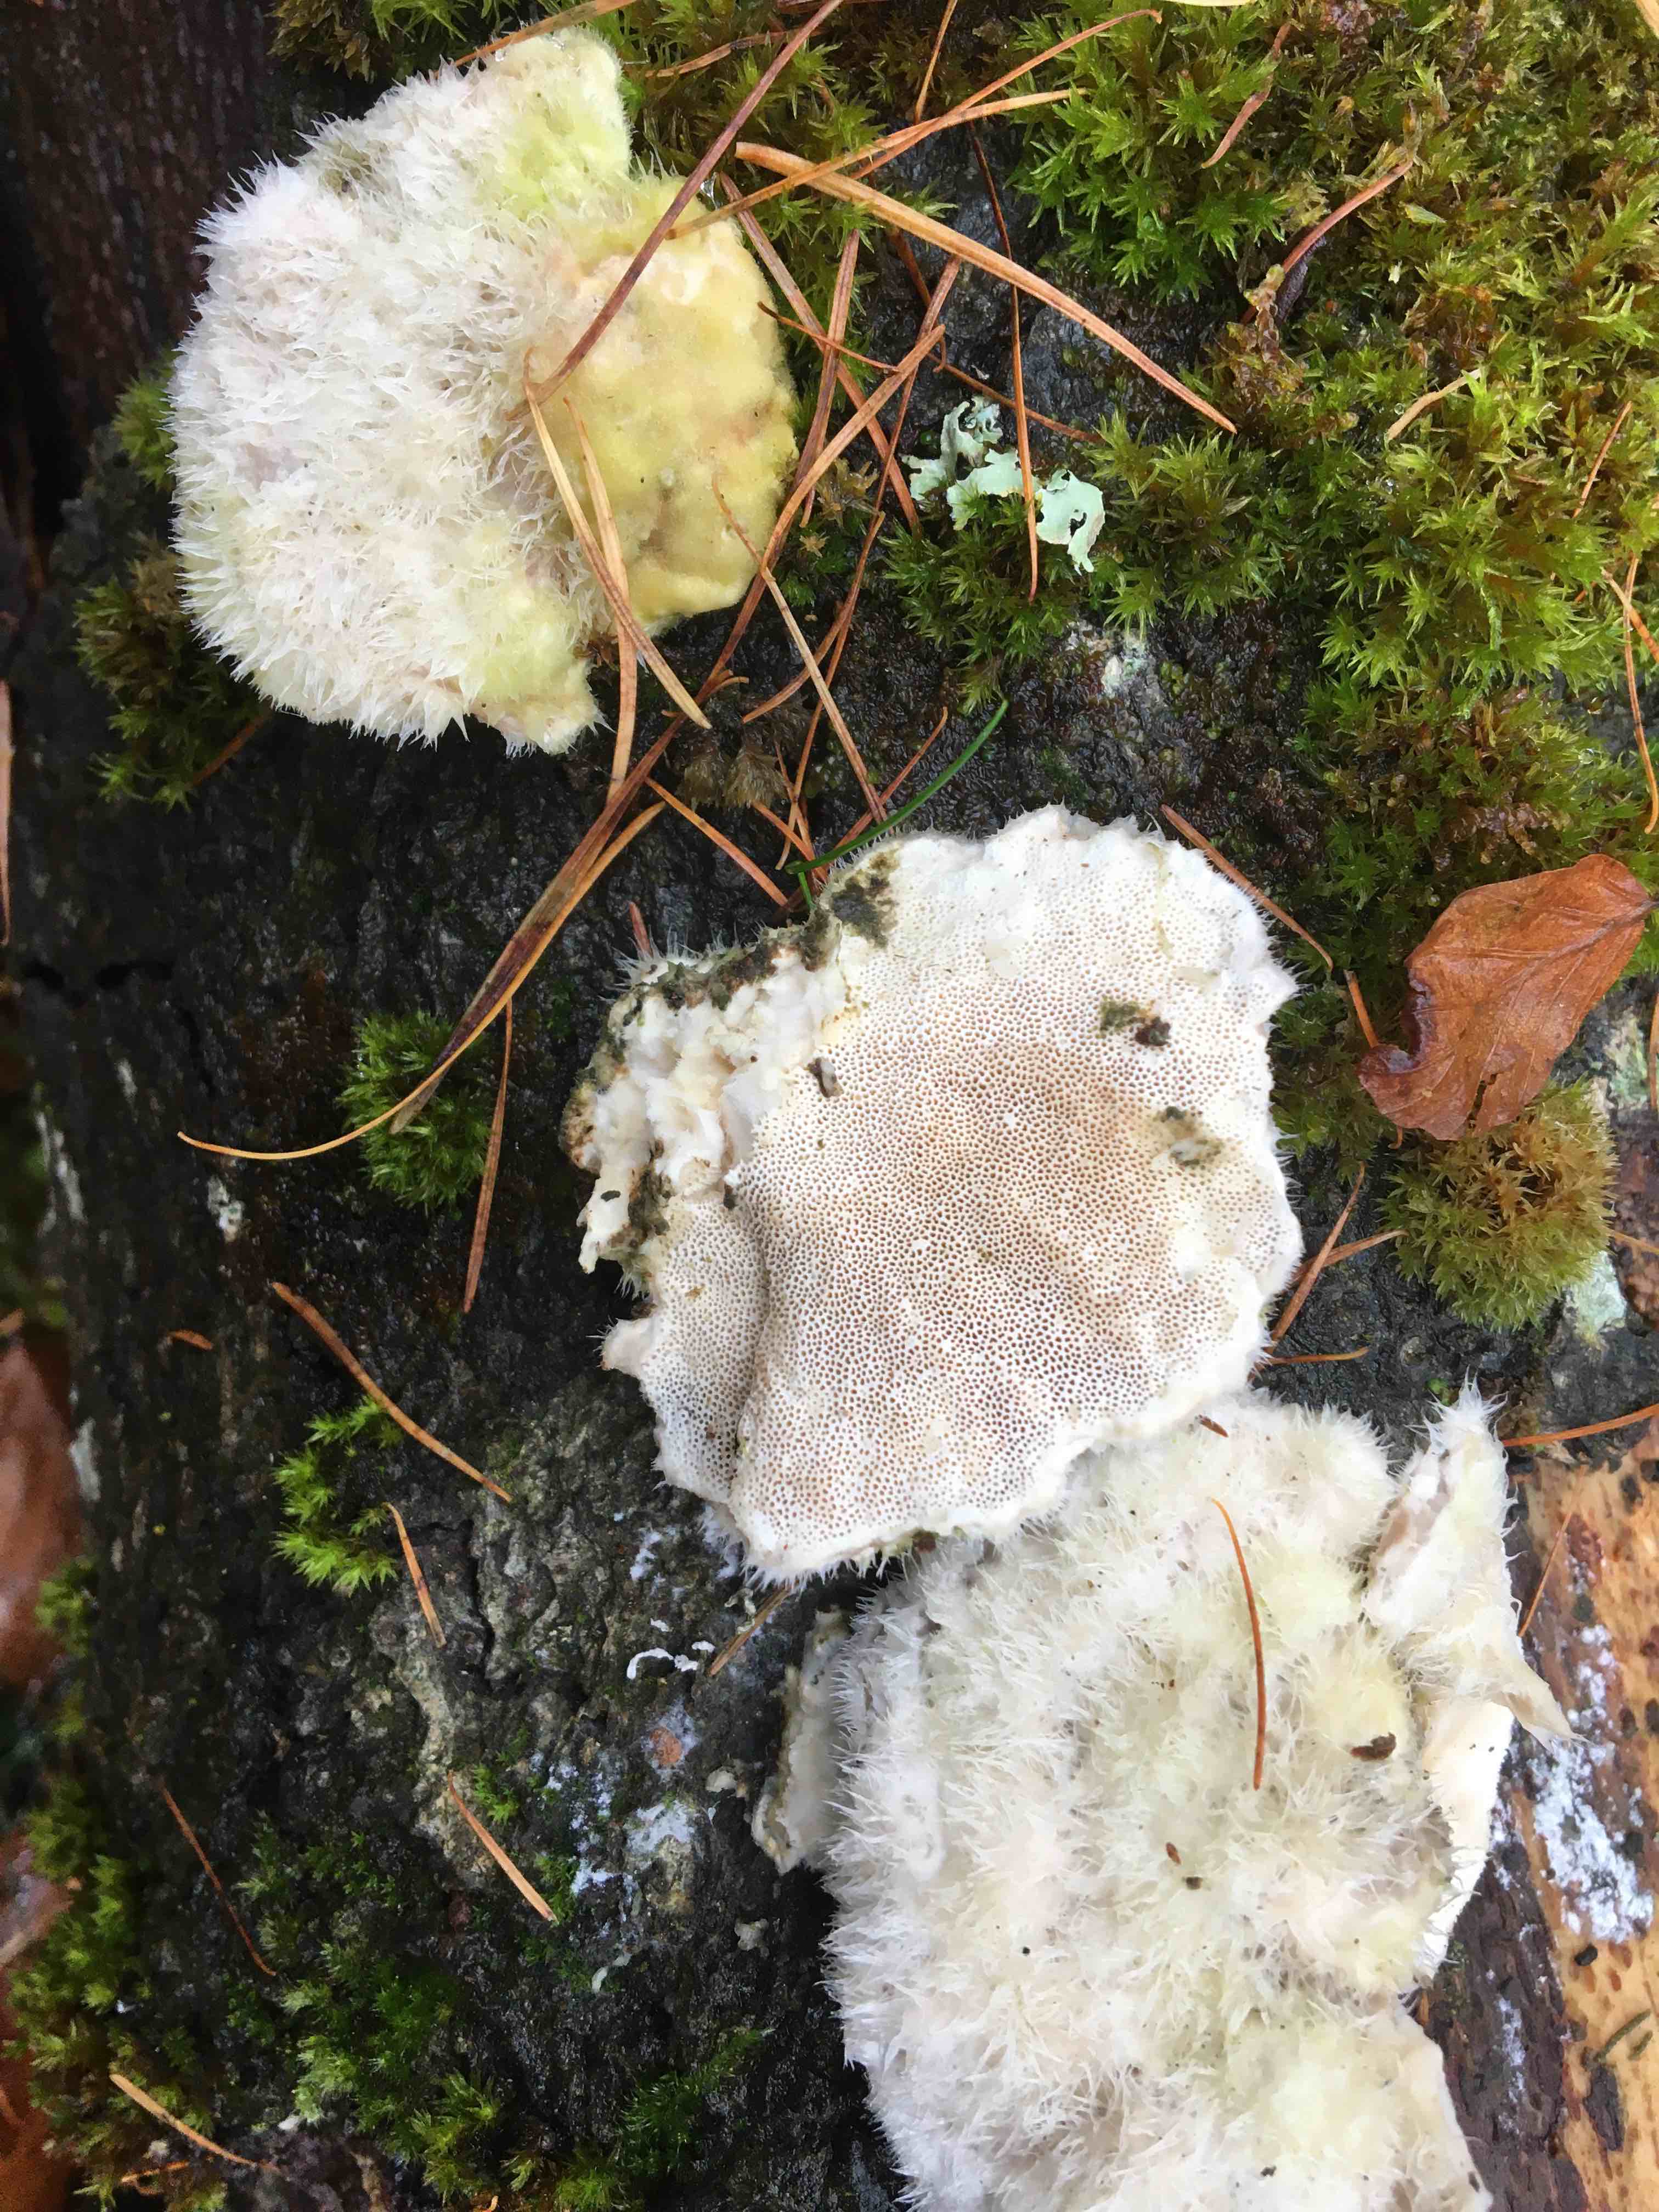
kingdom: Fungi
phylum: Basidiomycota
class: Agaricomycetes
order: Polyporales
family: Polyporaceae
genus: Trametes
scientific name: Trametes hirsuta
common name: håret læderporesvamp
